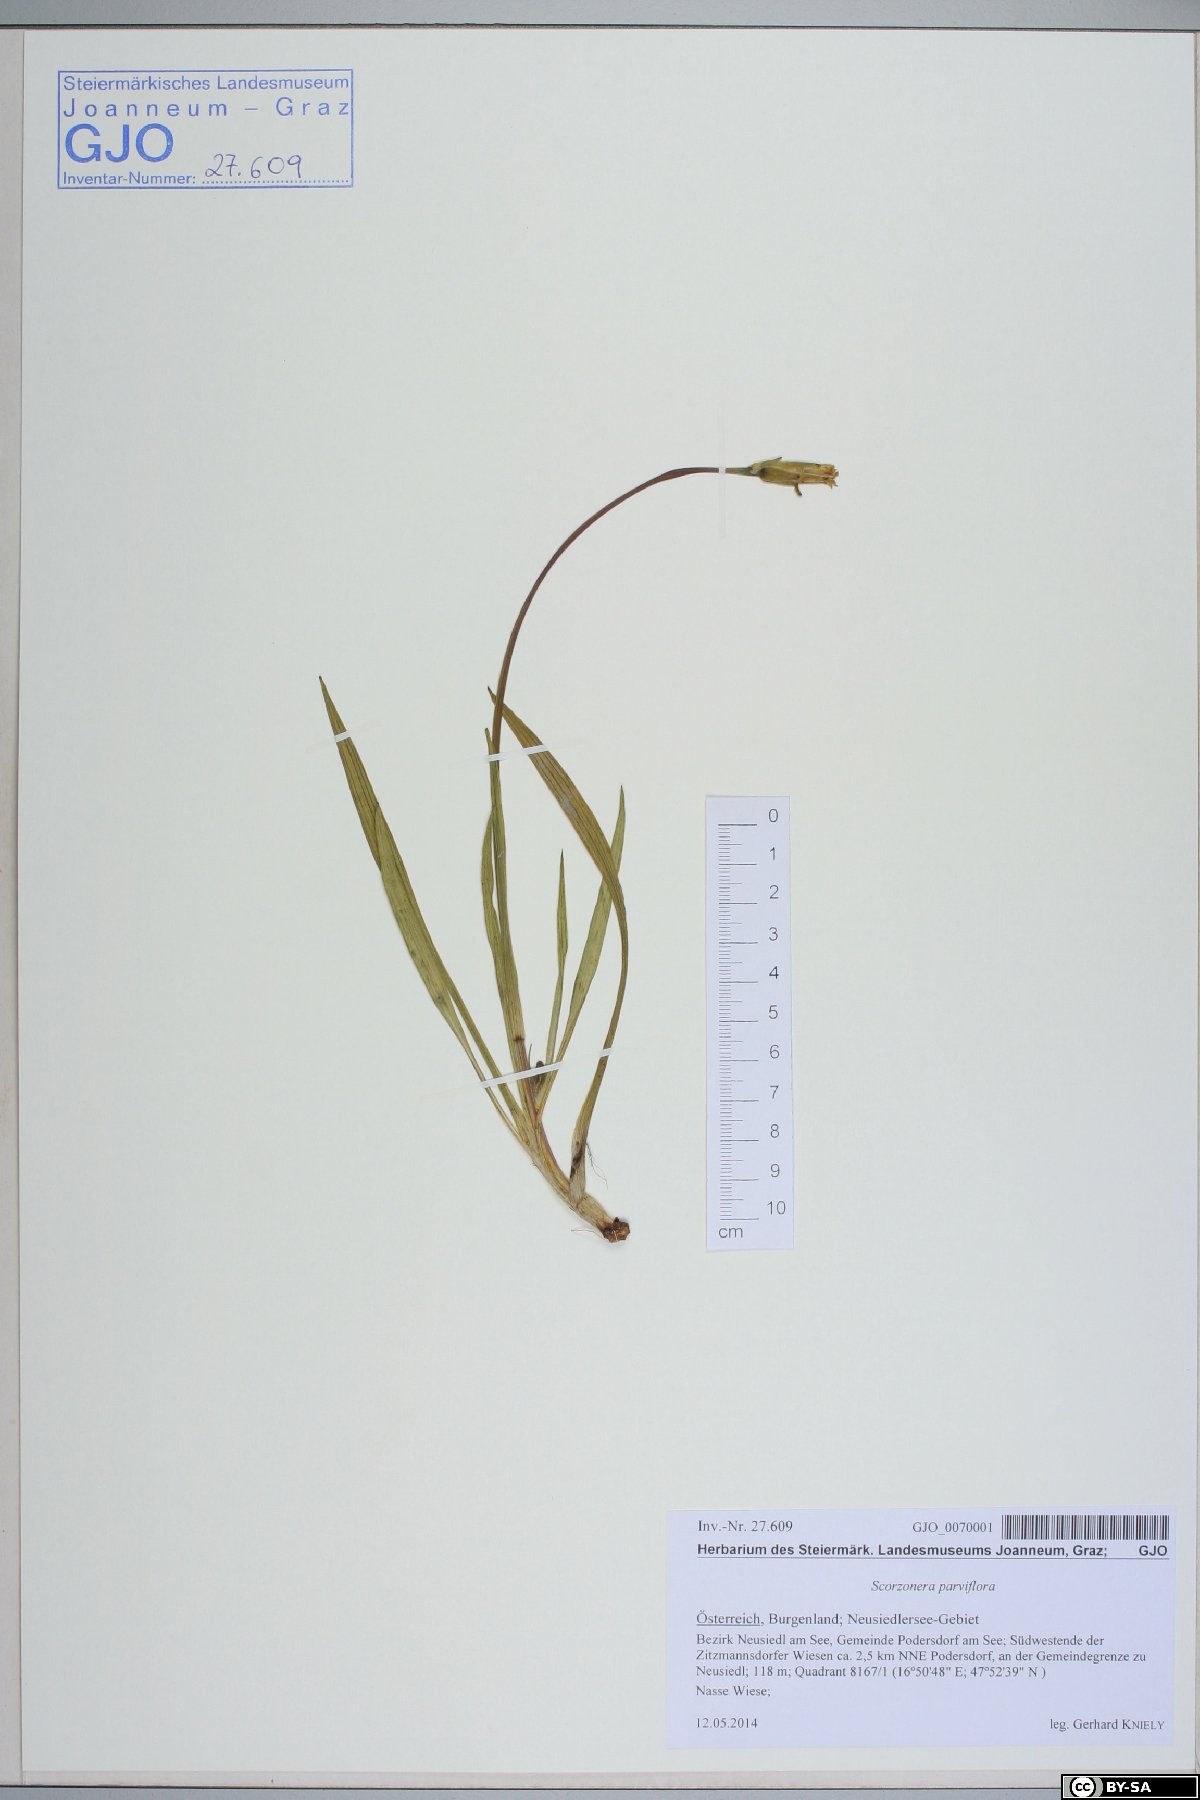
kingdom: Plantae
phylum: Tracheophyta
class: Magnoliopsida
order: Asterales
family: Asteraceae
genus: Scorzonera
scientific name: Scorzonera parviflora
